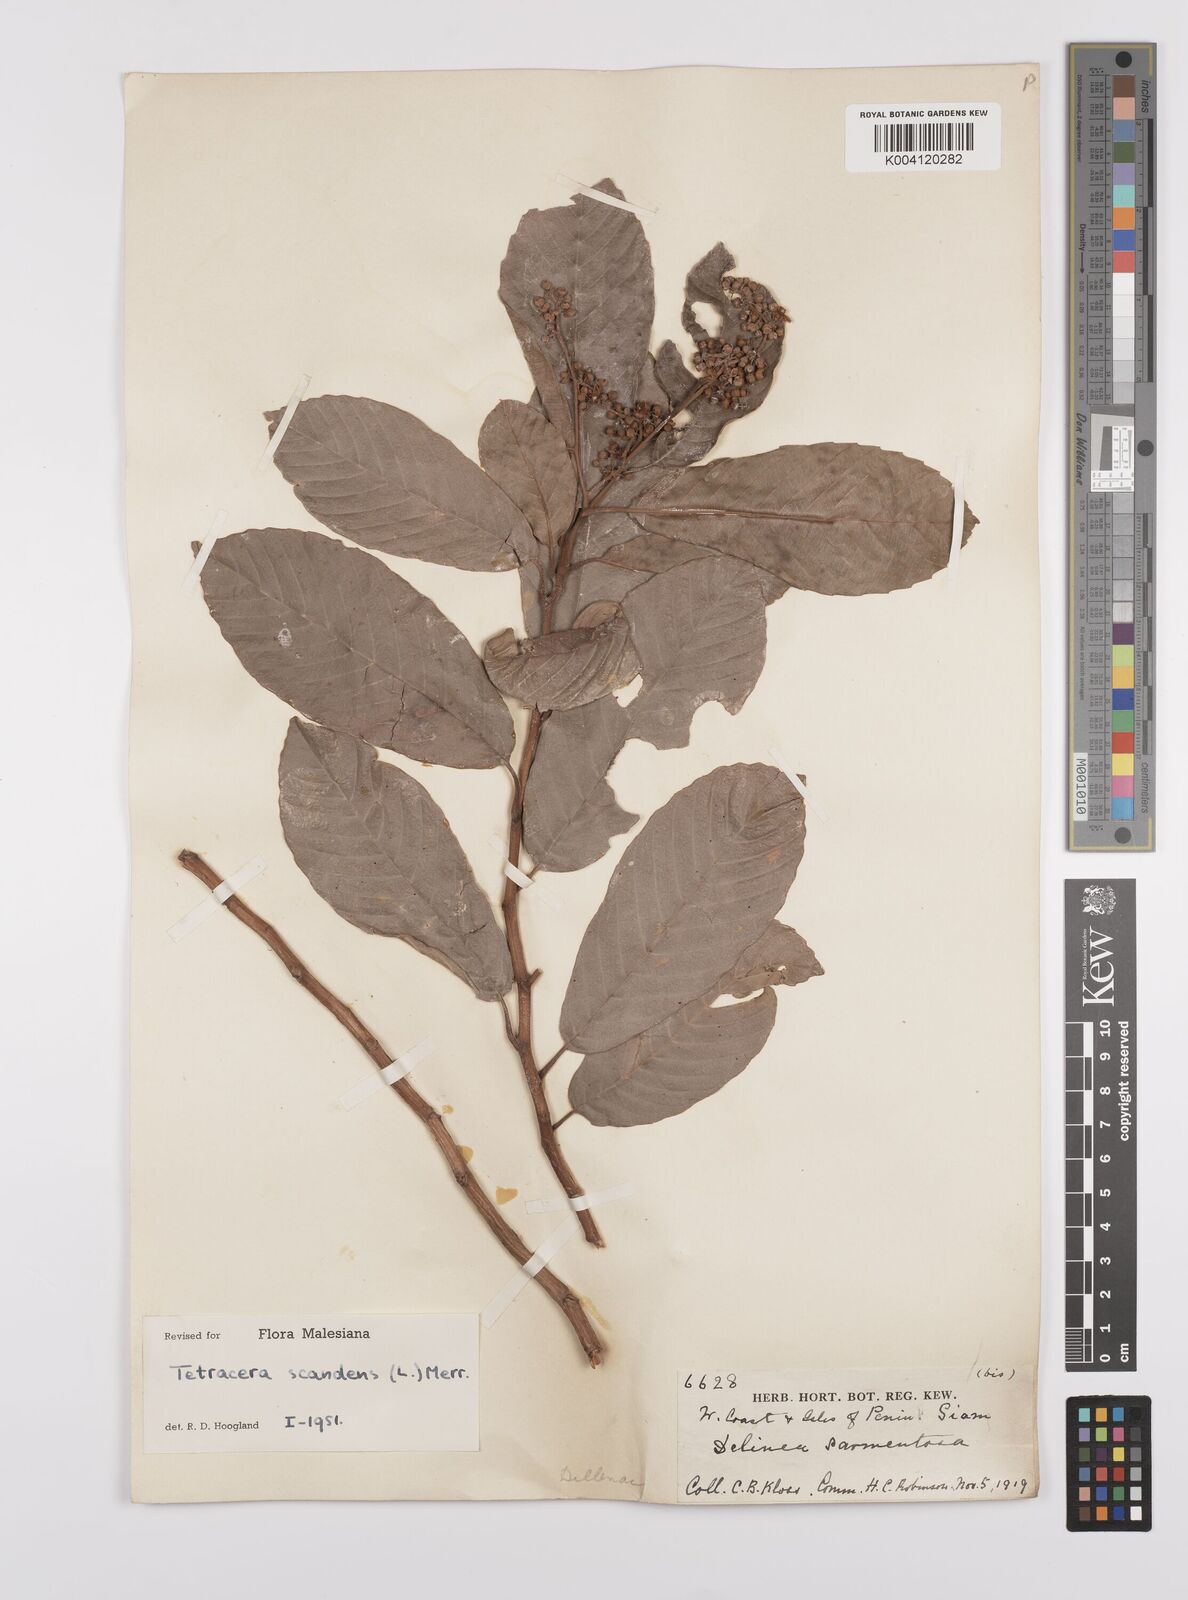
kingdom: Plantae
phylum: Tracheophyta
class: Magnoliopsida
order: Dilleniales
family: Dilleniaceae
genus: Tetracera
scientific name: Tetracera
